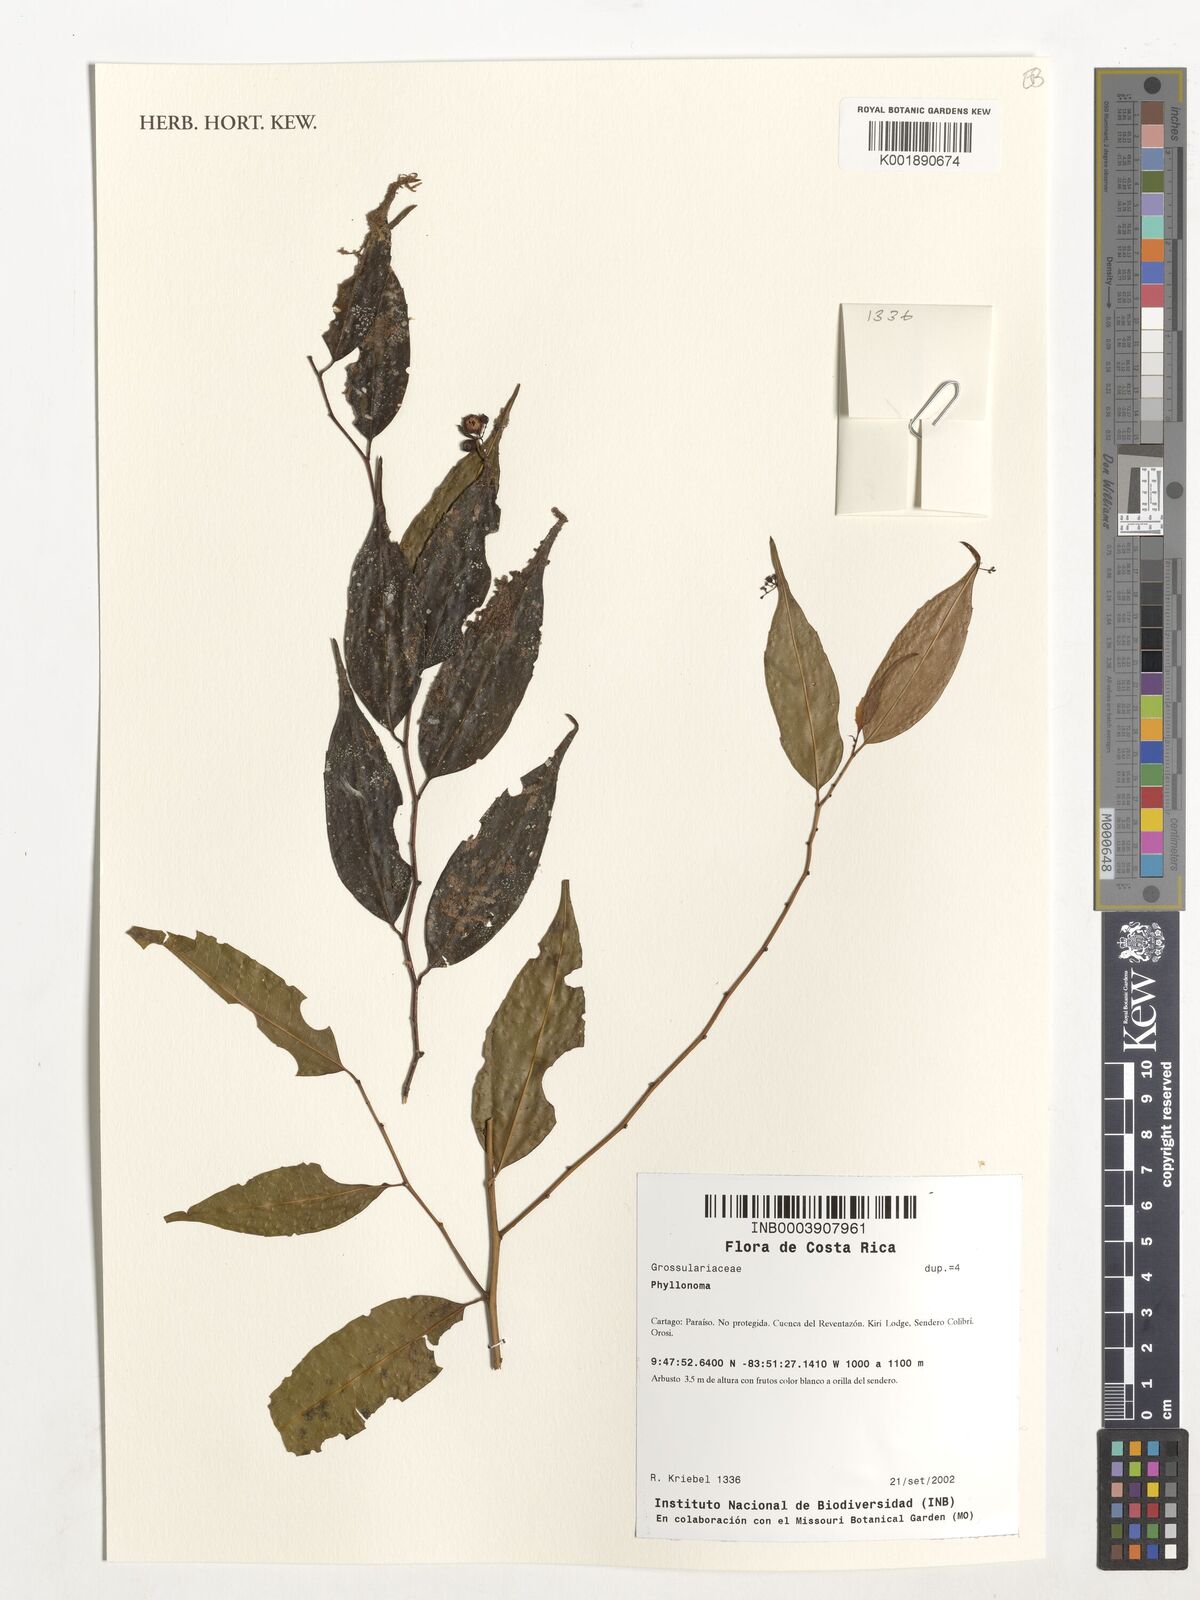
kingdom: Plantae
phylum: Tracheophyta
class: Magnoliopsida
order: Aquifoliales
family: Phyllonomaceae
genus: Phyllonoma
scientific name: Phyllonoma
